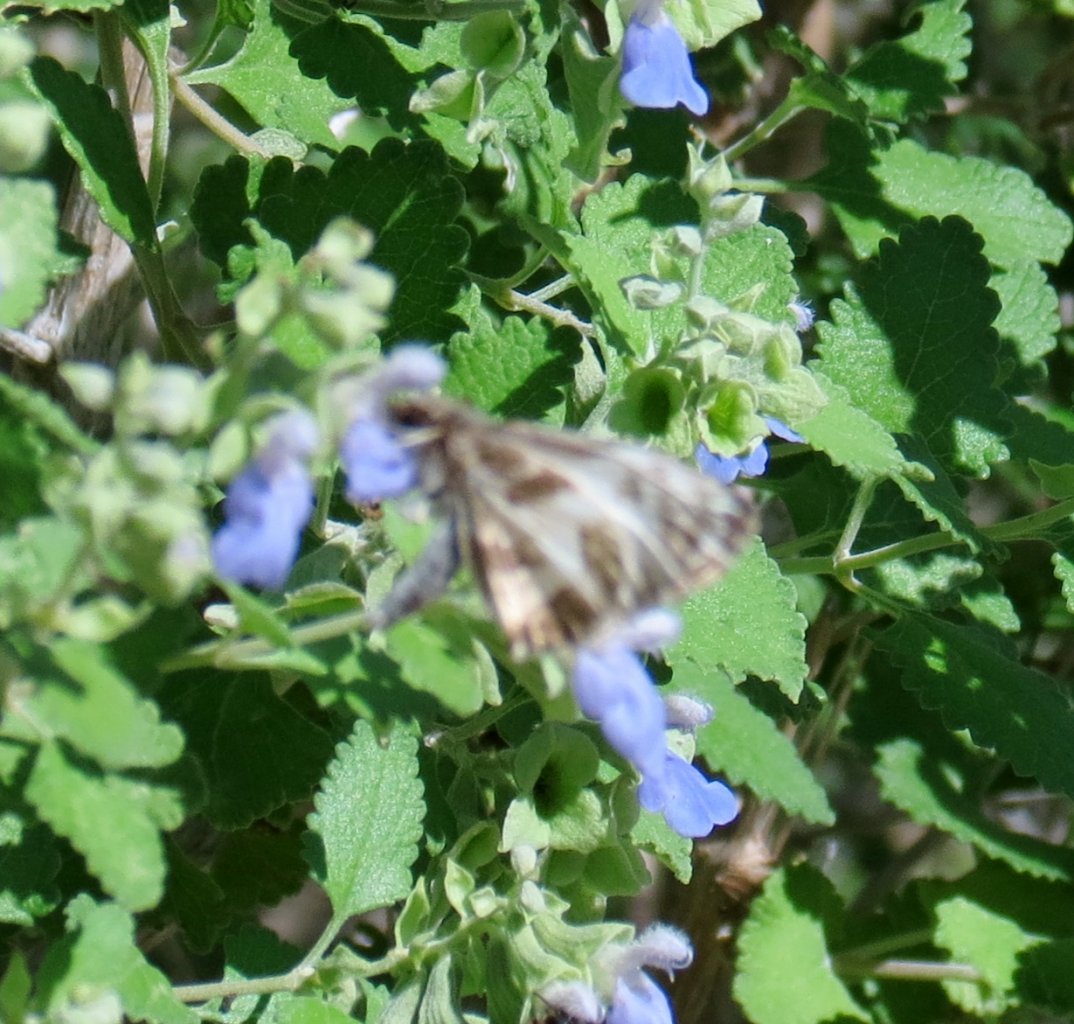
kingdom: Animalia
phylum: Arthropoda
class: Insecta
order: Lepidoptera
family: Hesperiidae
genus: Heliopetes
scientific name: Heliopetes macaira
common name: Turk's-cap White-Skipper
